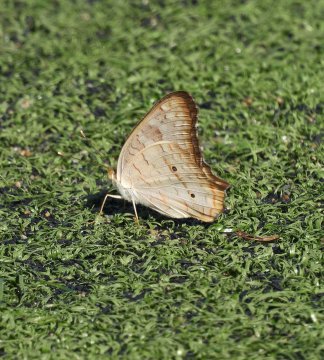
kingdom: Animalia
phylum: Arthropoda
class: Insecta
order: Lepidoptera
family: Nymphalidae
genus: Anartia
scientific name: Anartia jatrophae
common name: White Peacock
